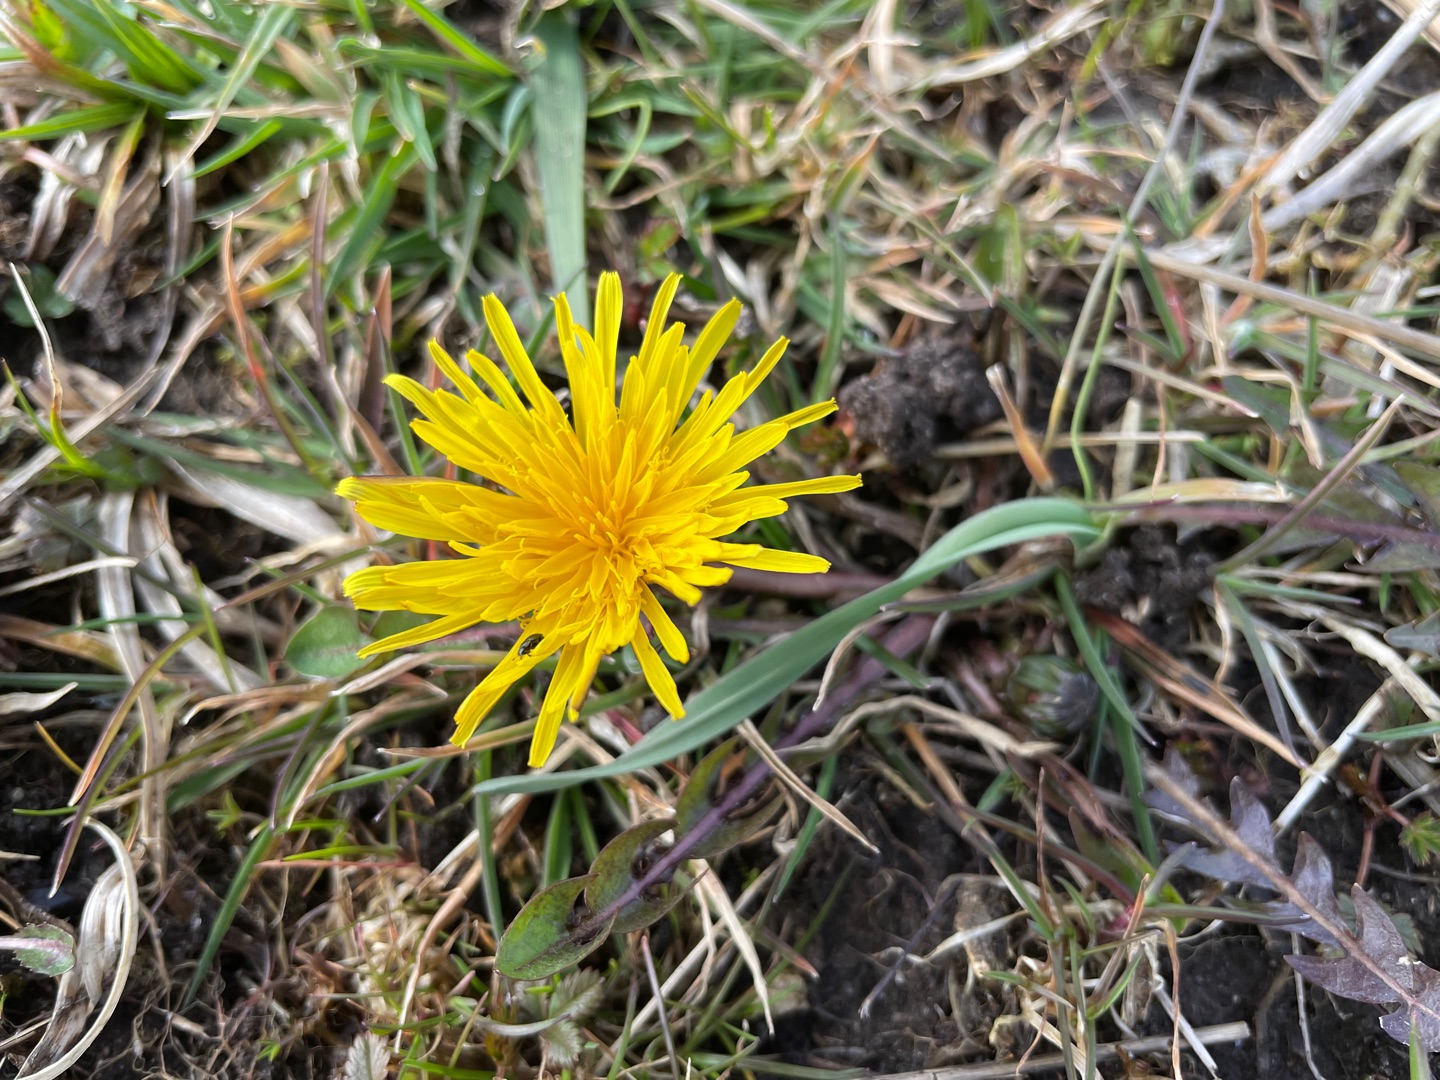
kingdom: Plantae
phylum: Tracheophyta
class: Magnoliopsida
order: Asterales
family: Asteraceae
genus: Taraxacum
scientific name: Taraxacum
